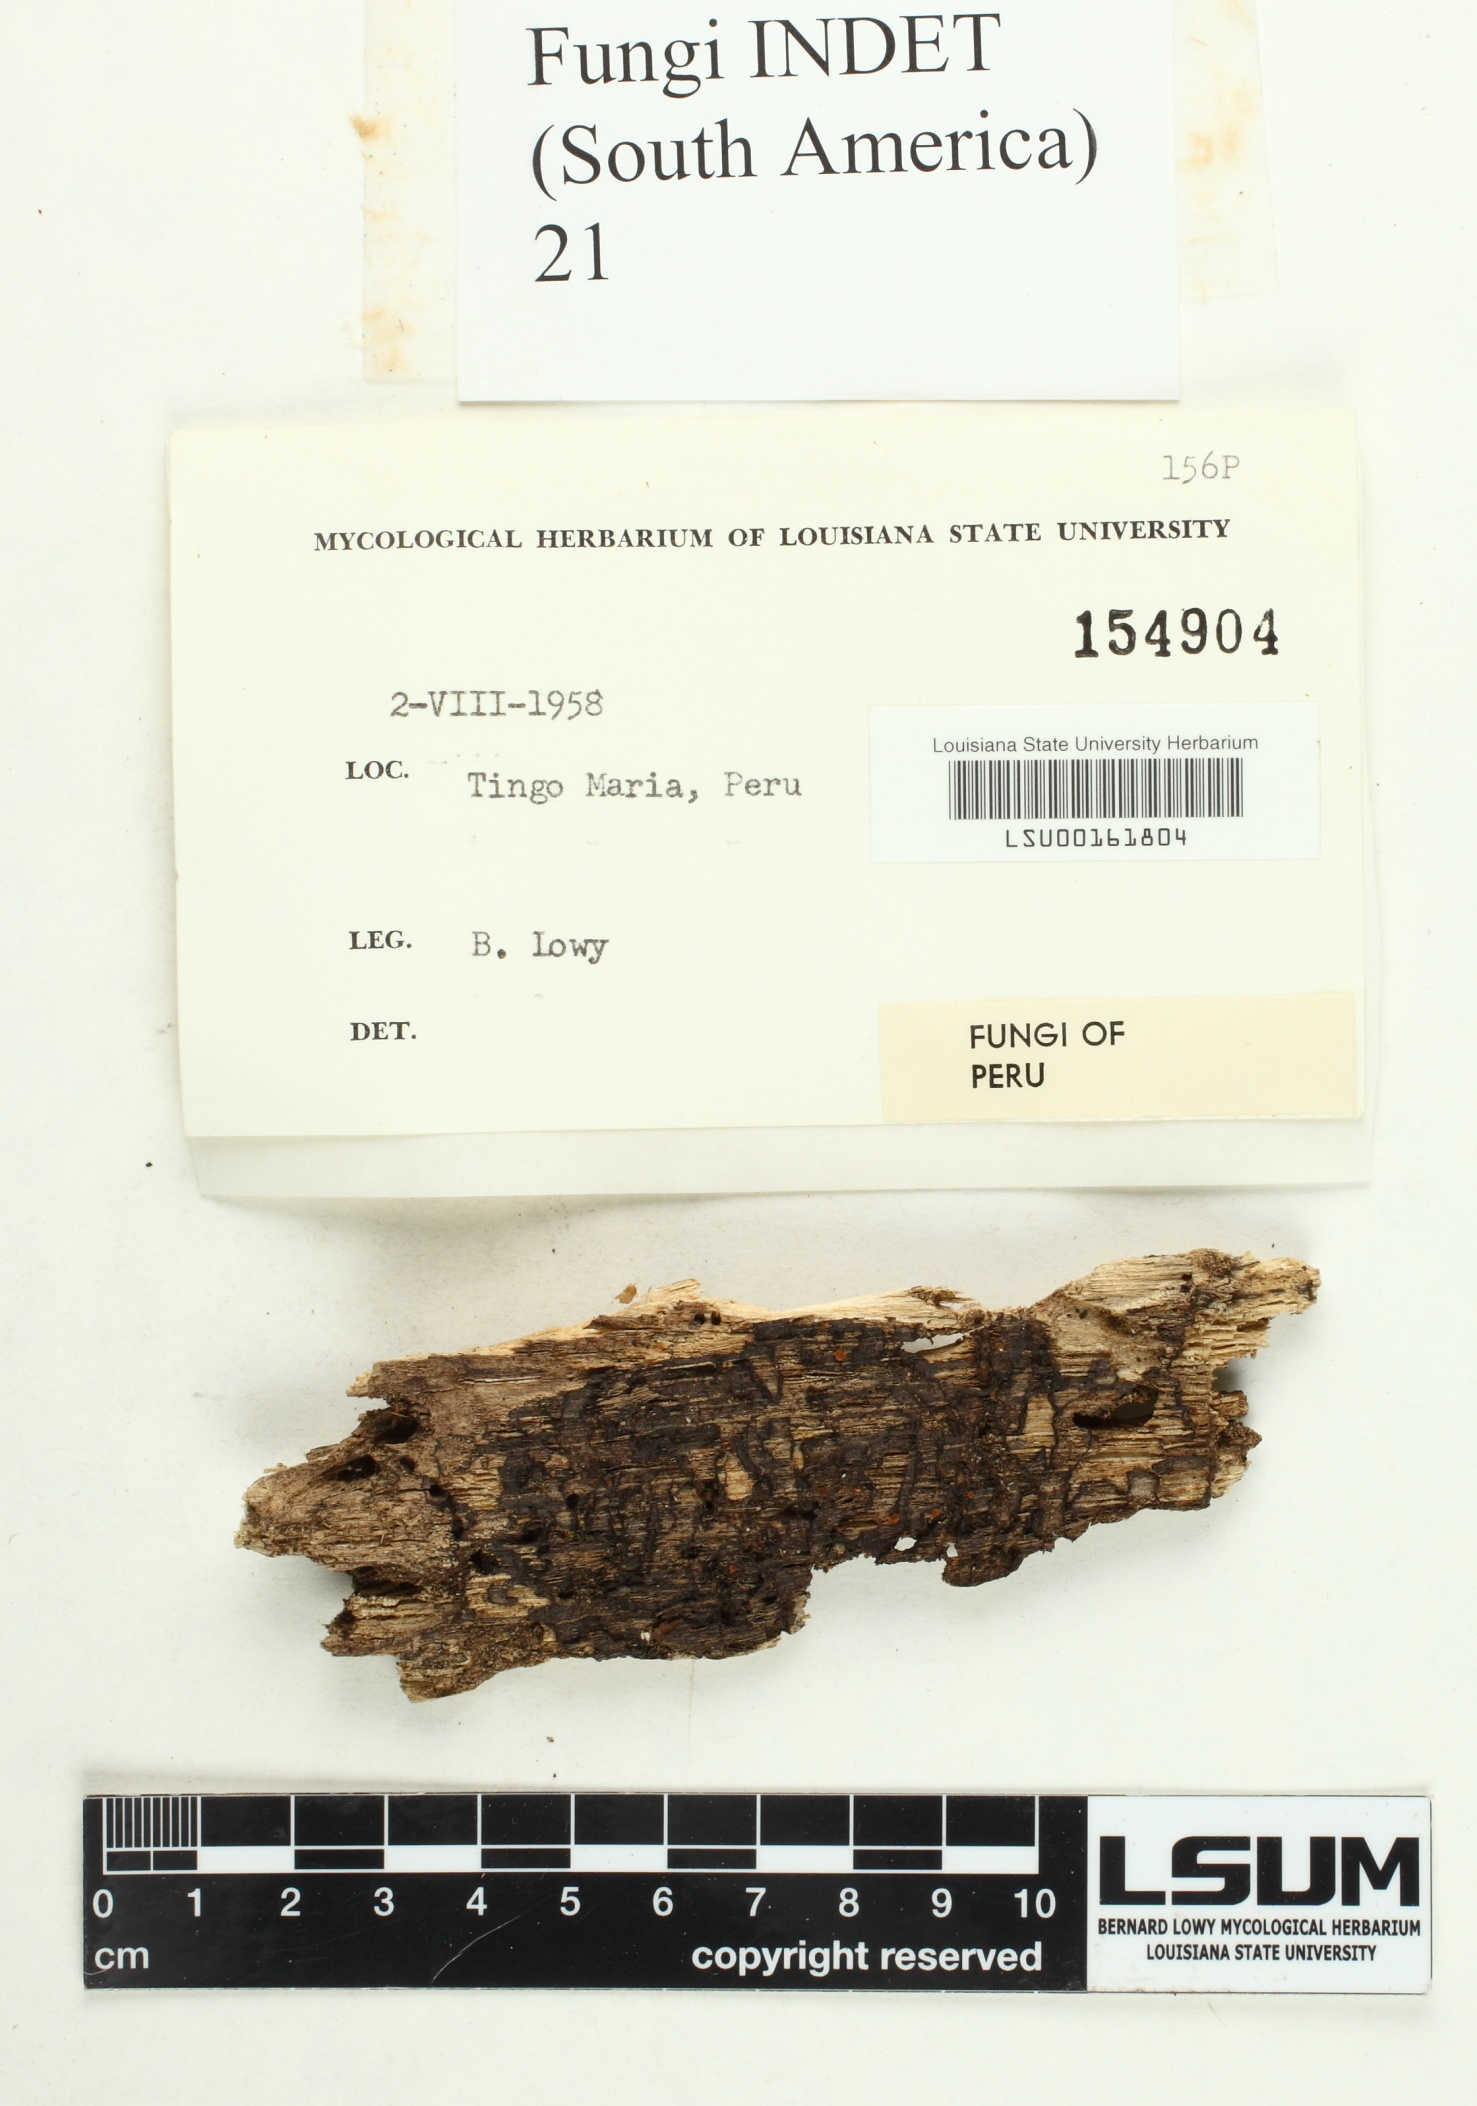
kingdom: Fungi
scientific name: Fungi
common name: Fungi
